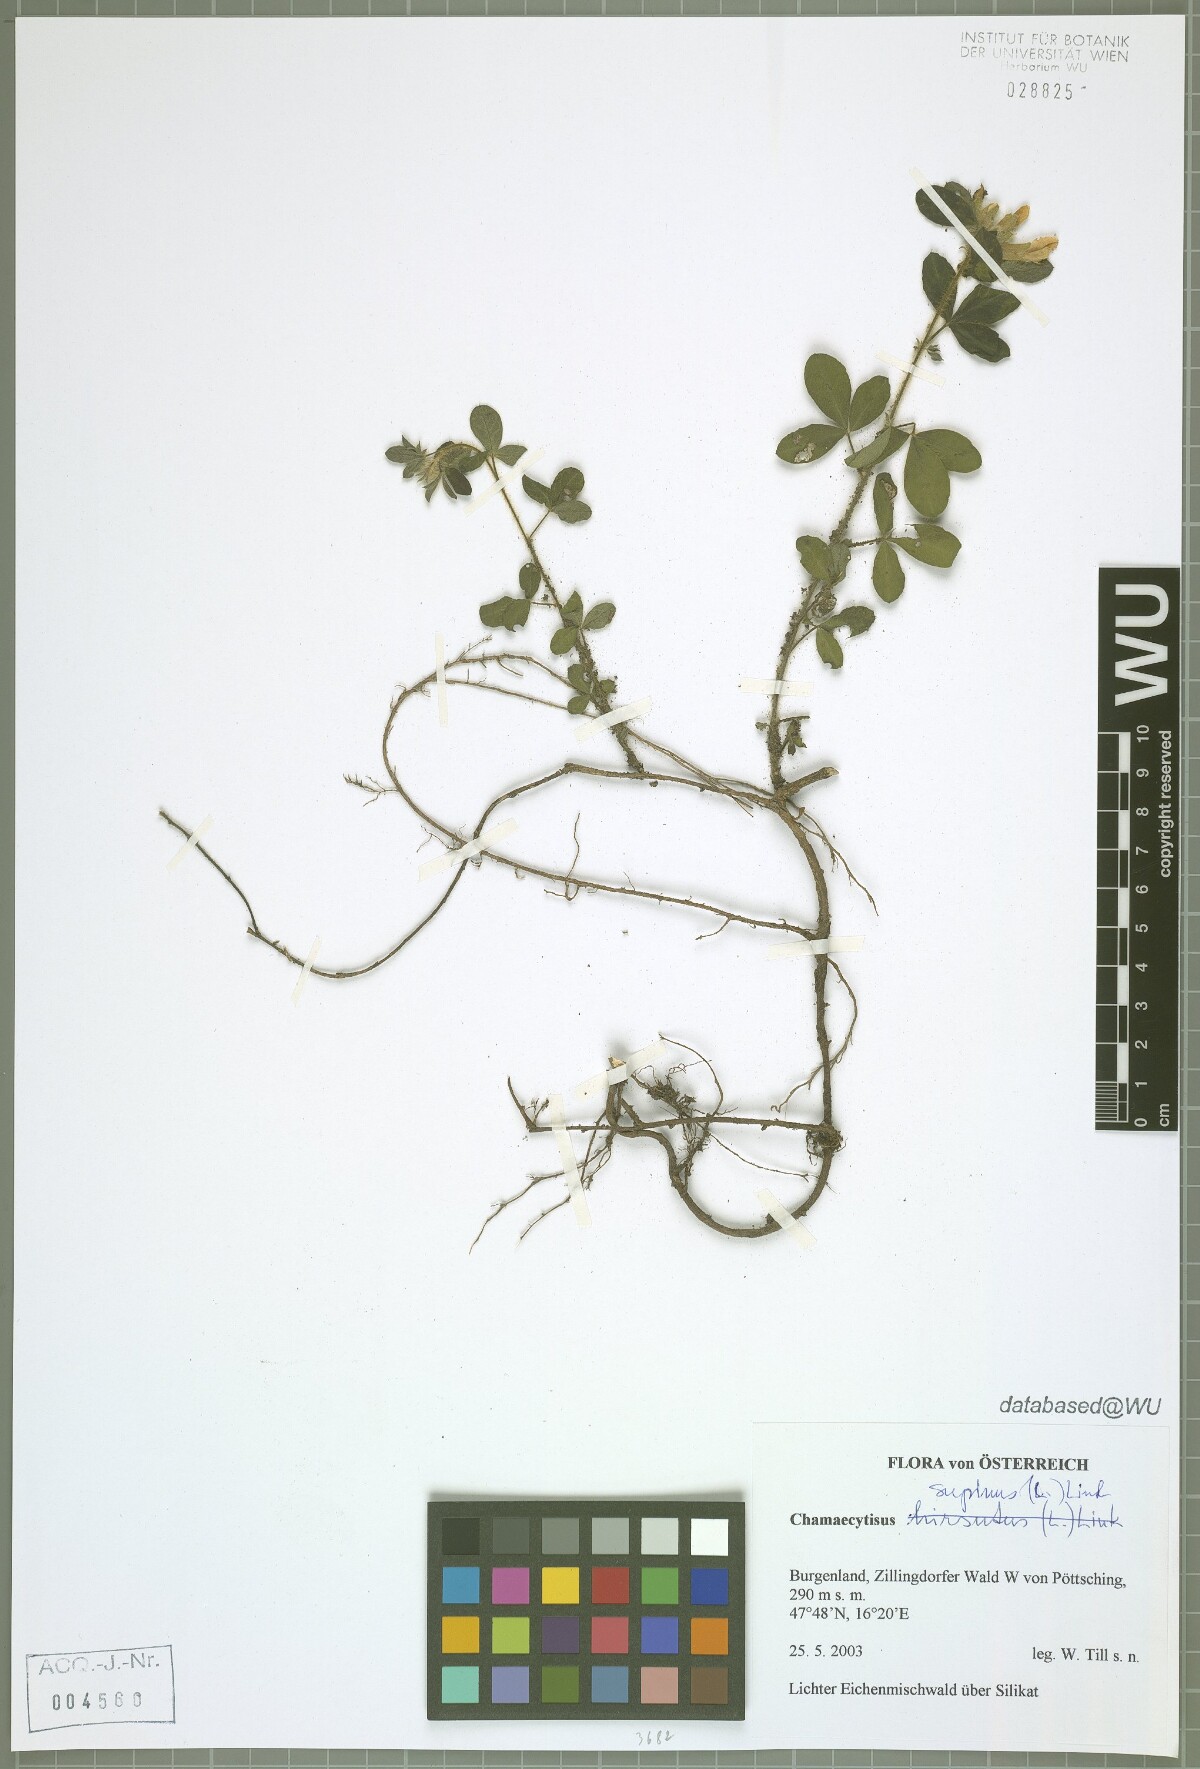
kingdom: Plantae
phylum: Tracheophyta
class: Magnoliopsida
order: Fabales
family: Fabaceae
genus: Chamaecytisus
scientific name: Chamaecytisus supinus
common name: Clustered broom
